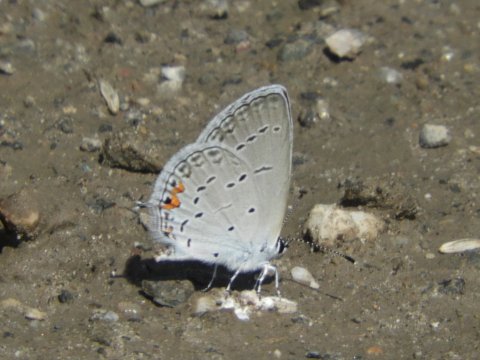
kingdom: Animalia
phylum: Arthropoda
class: Insecta
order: Lepidoptera
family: Lycaenidae
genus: Elkalyce
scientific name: Elkalyce comyntas
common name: Eastern Tailed-Blue
